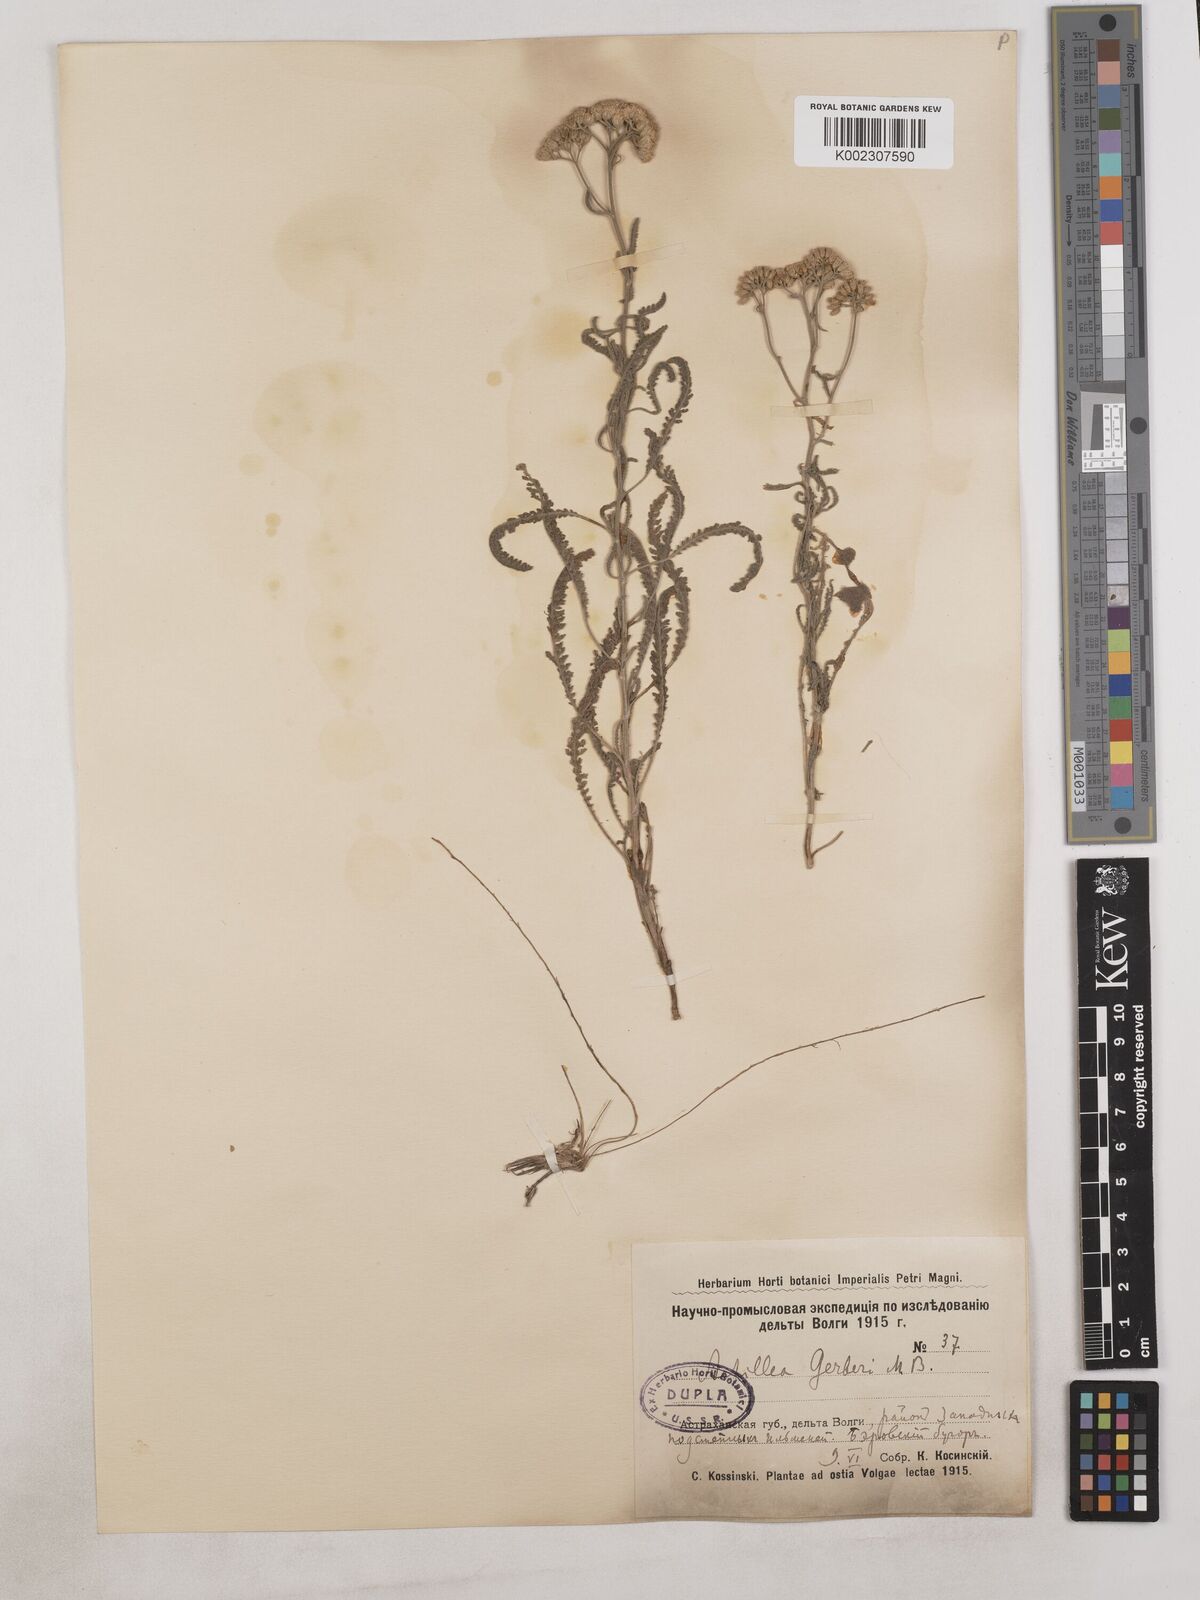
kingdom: Plantae
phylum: Tracheophyta
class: Magnoliopsida
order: Asterales
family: Asteraceae
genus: Achillea
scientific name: Achillea
